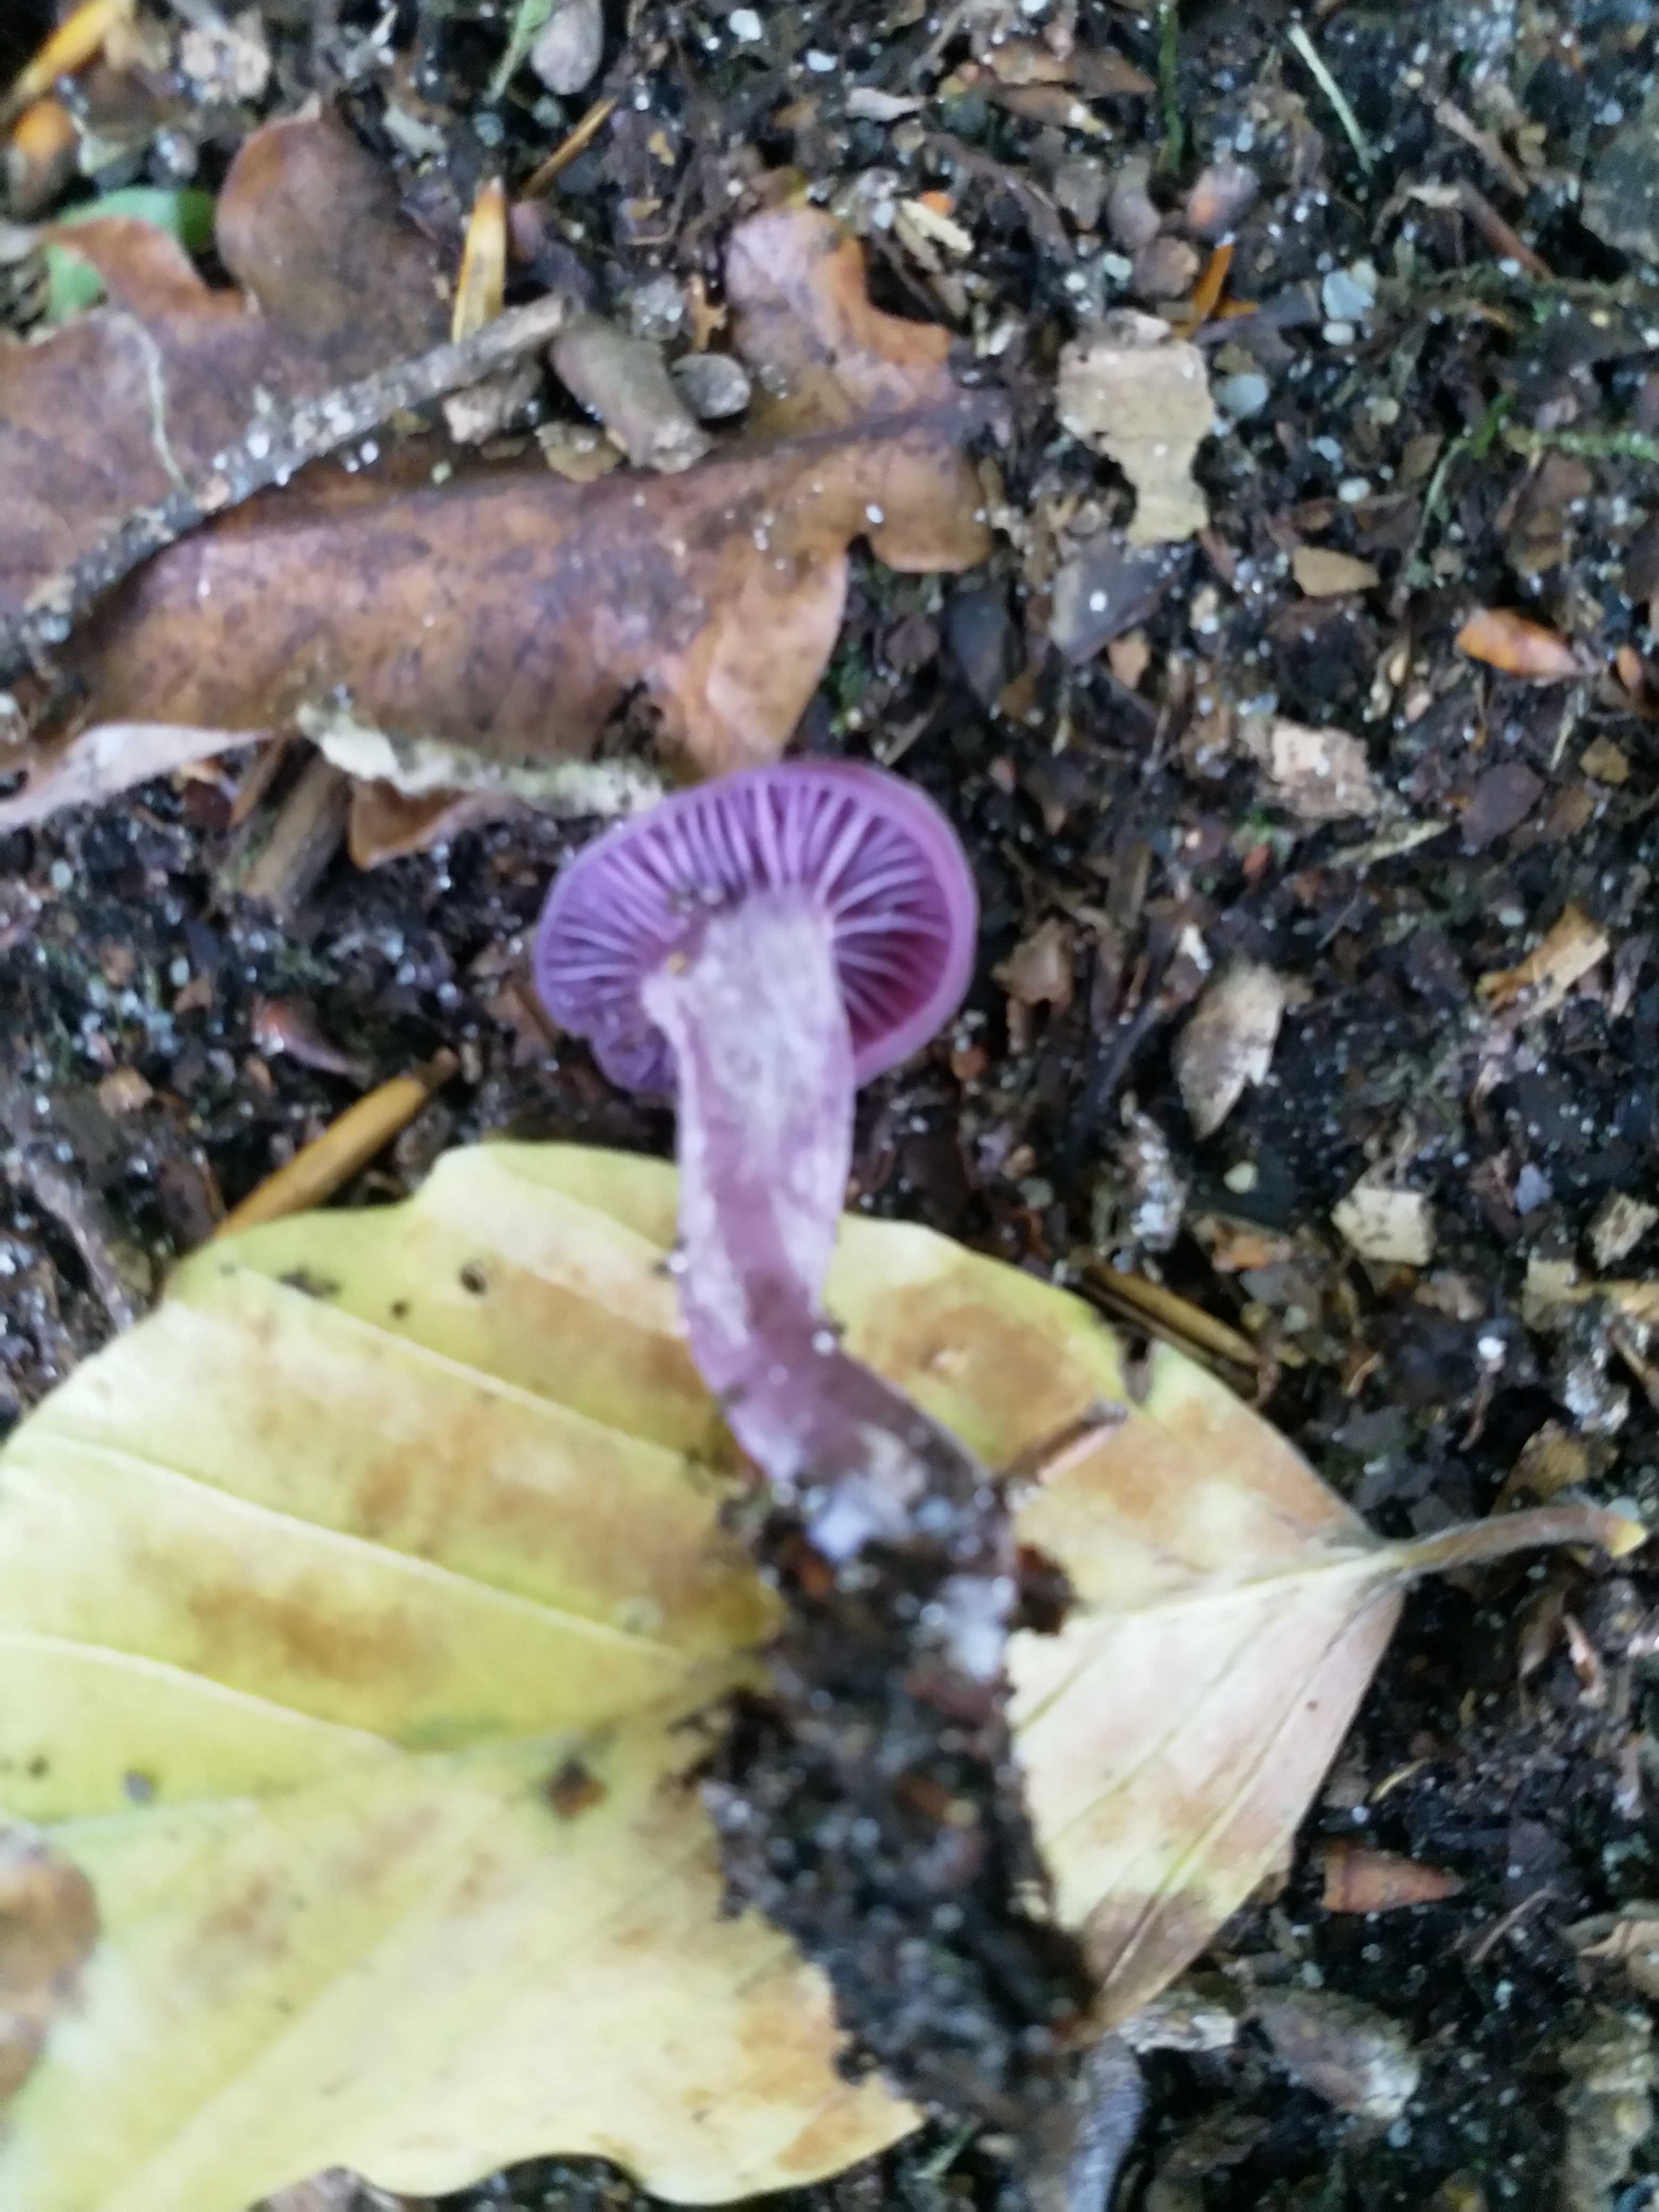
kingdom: Fungi
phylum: Basidiomycota
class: Agaricomycetes
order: Agaricales
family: Hydnangiaceae
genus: Laccaria
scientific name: Laccaria amethystina
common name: violet ametysthat
